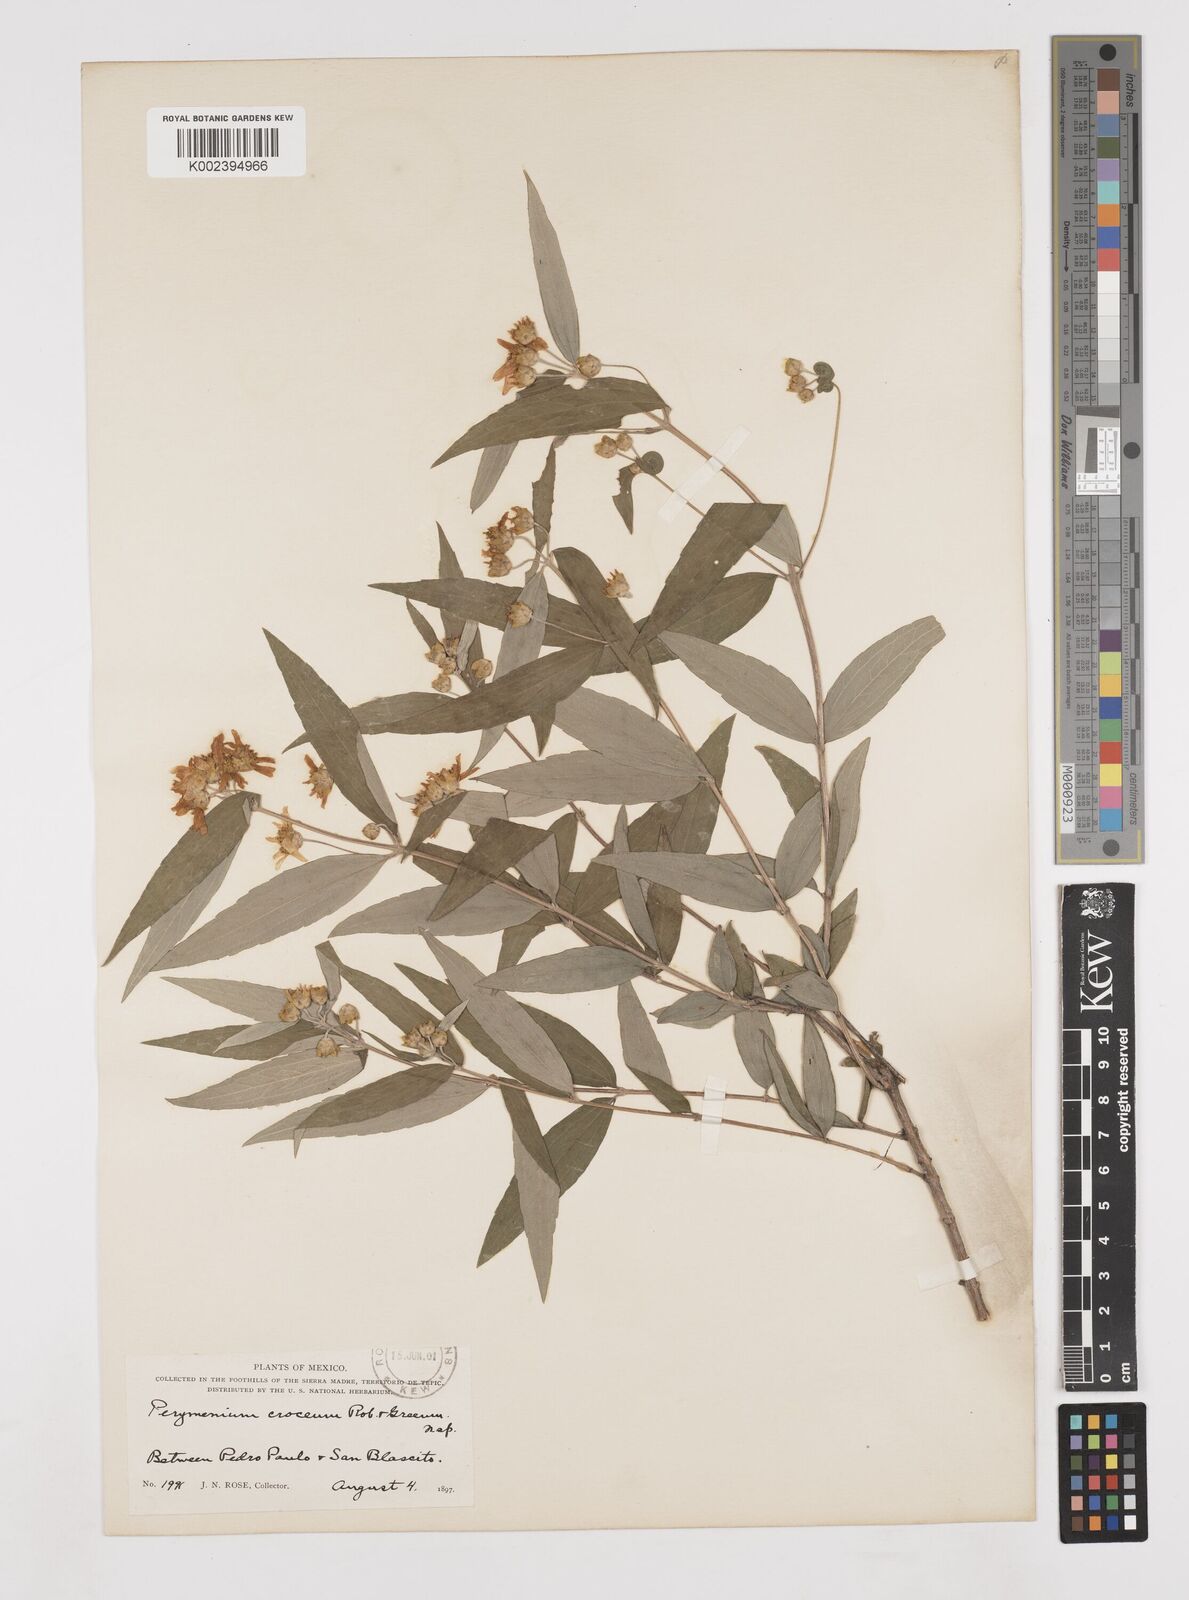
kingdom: Plantae
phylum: Tracheophyta
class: Magnoliopsida
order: Asterales
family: Asteraceae
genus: Perymenium
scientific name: Perymenium pringlei
